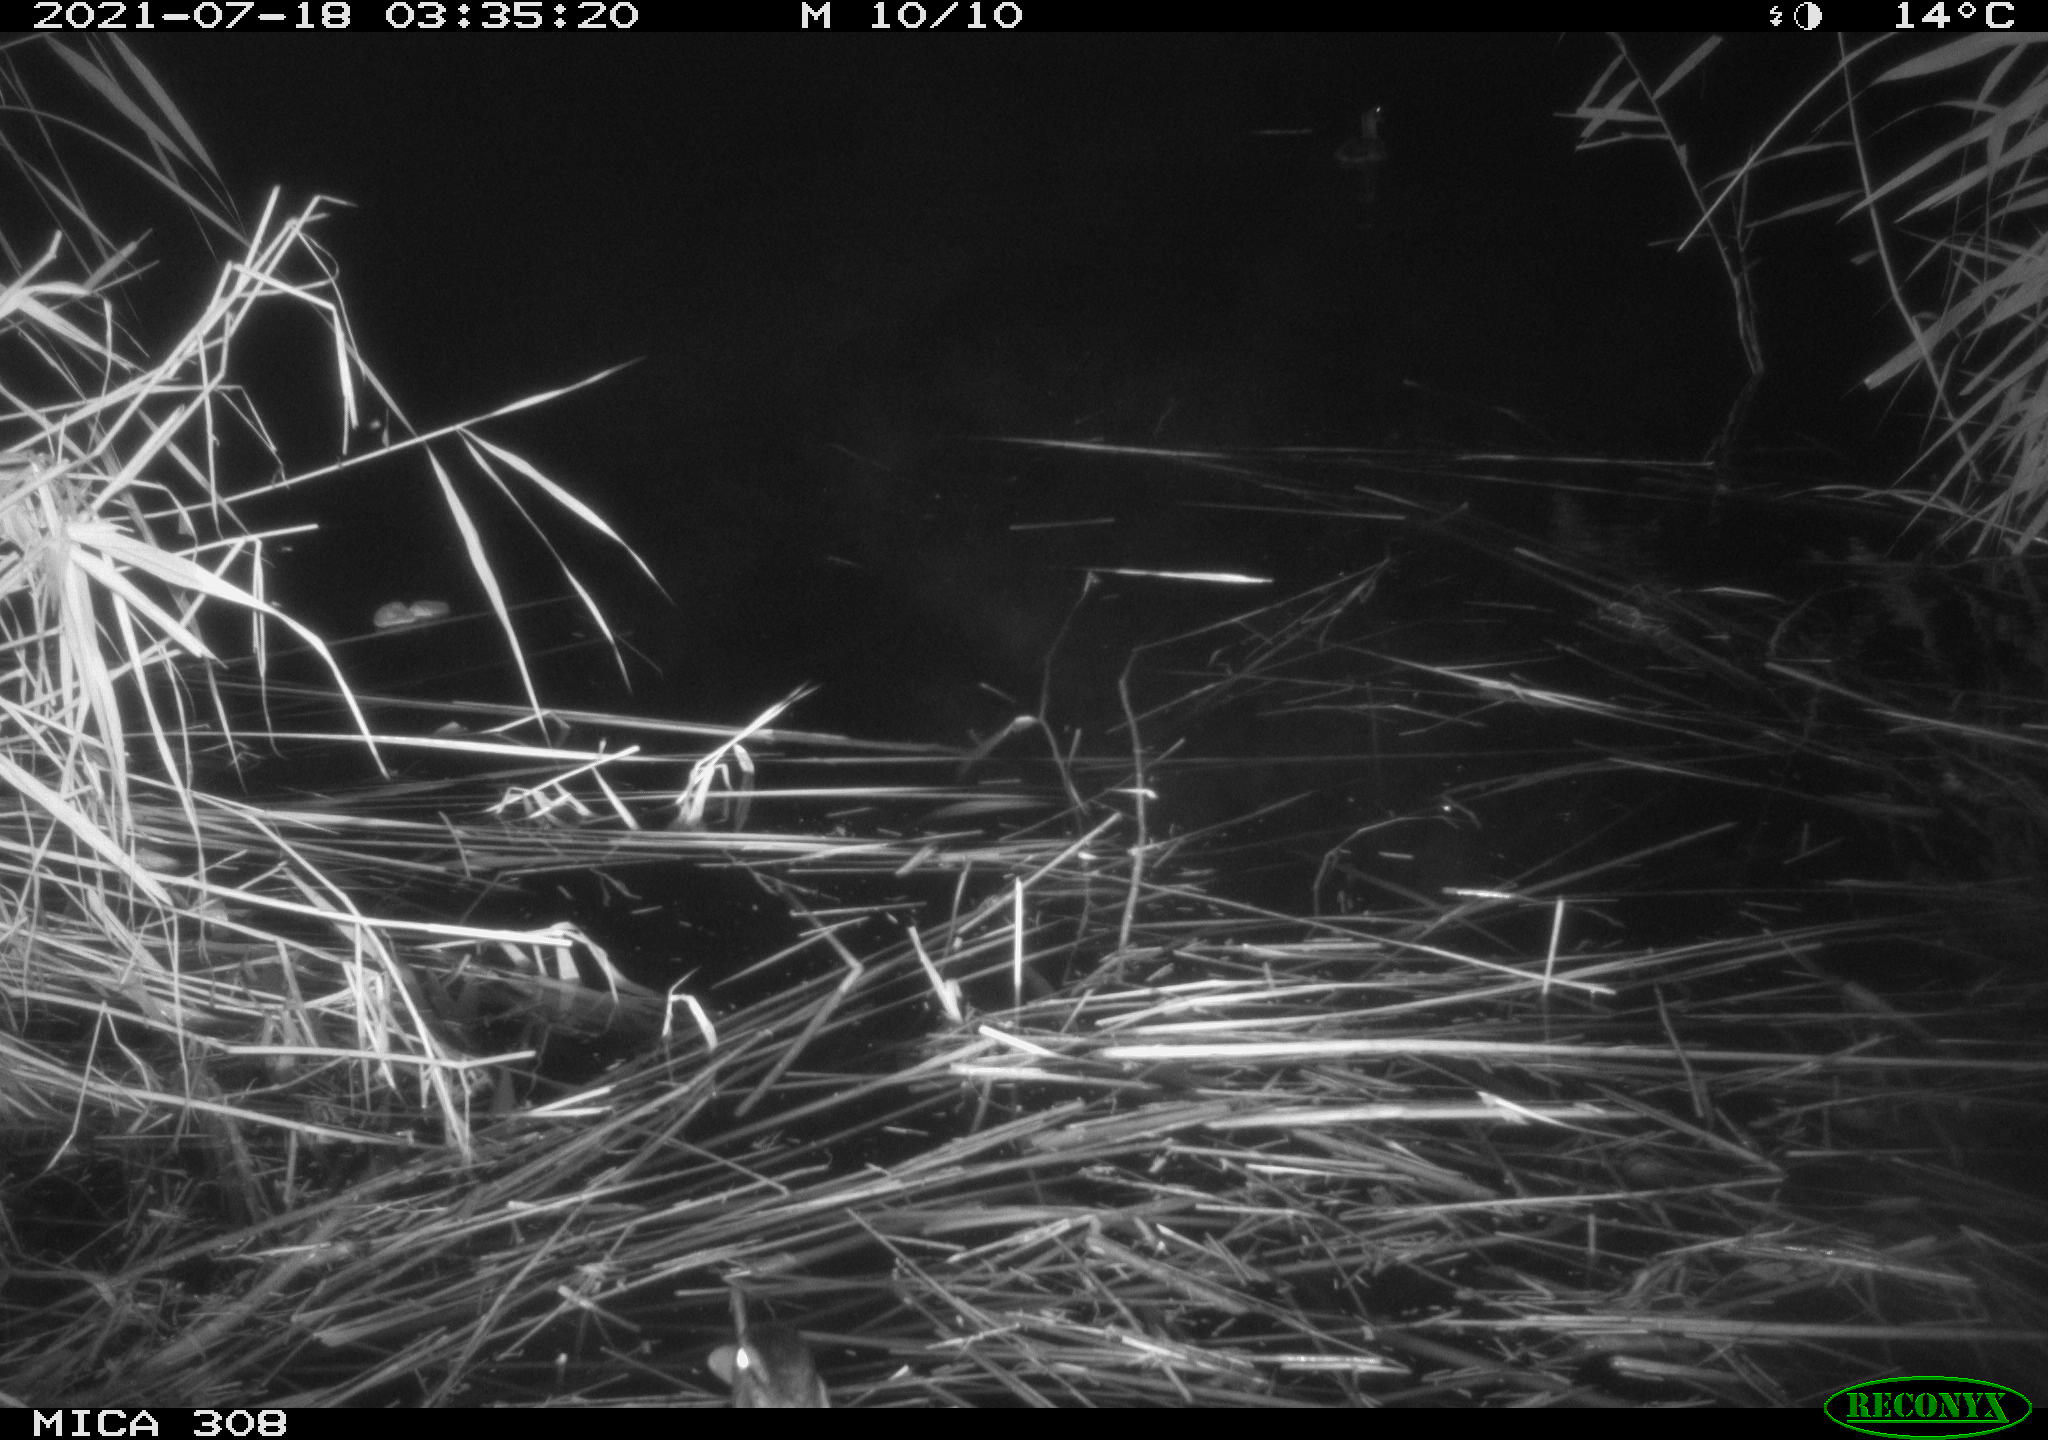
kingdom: Animalia
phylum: Chordata
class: Mammalia
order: Rodentia
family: Muridae
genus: Rattus
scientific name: Rattus norvegicus
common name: Brown rat
